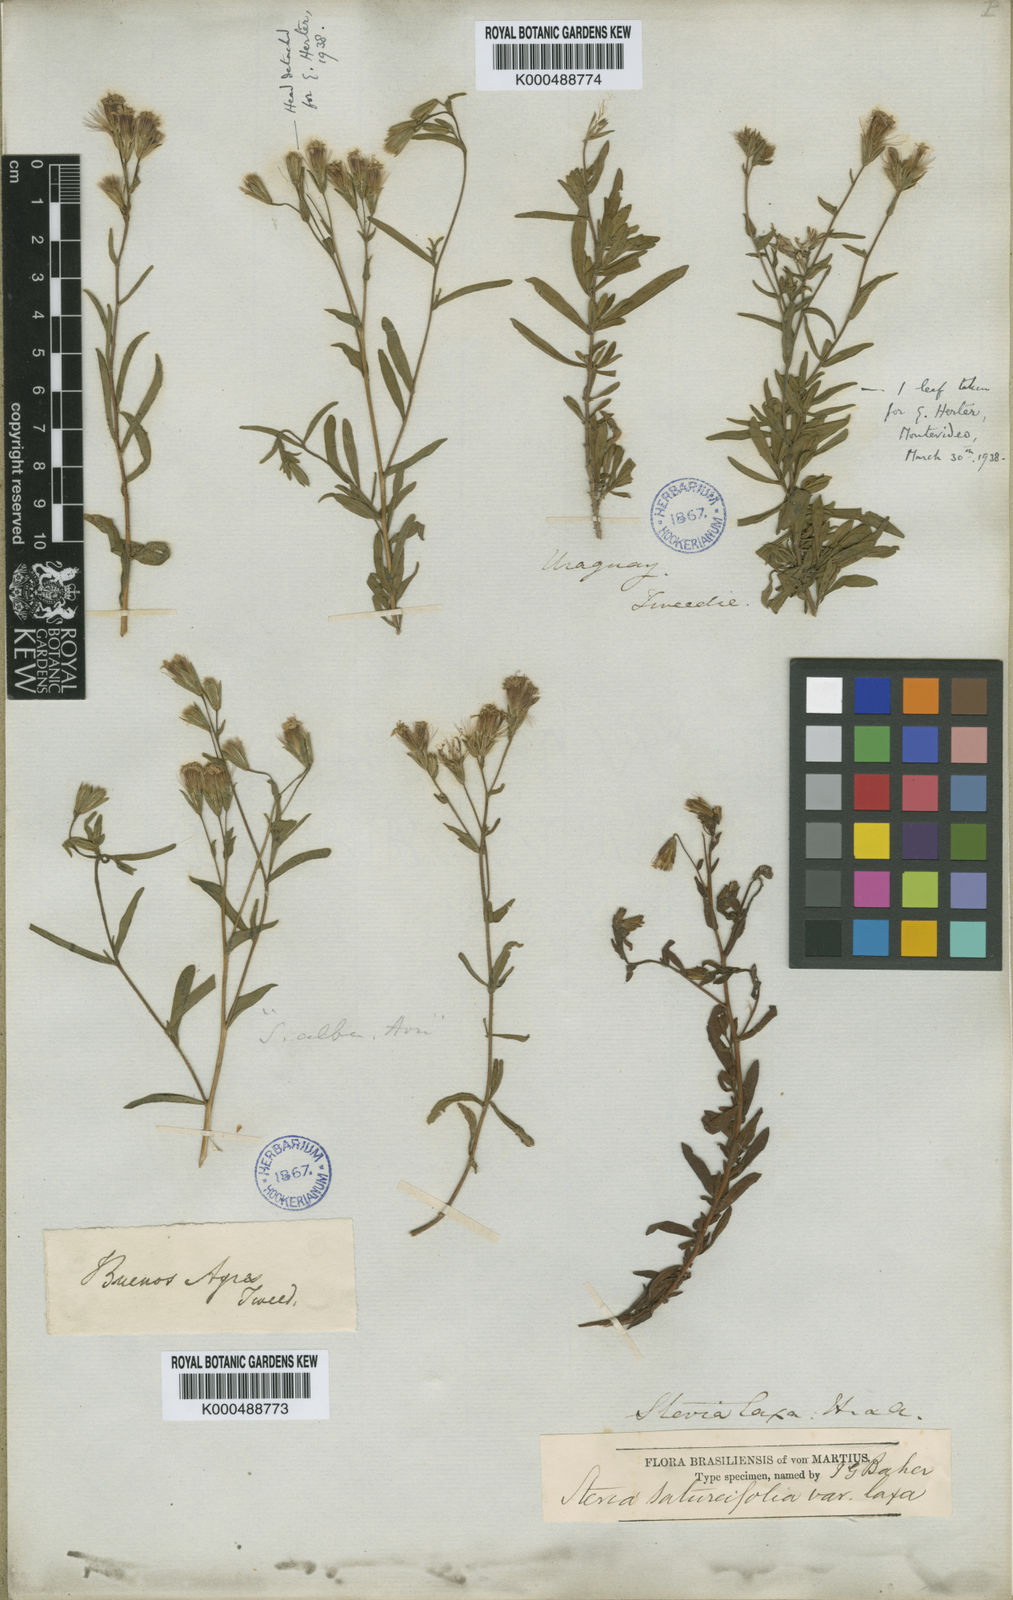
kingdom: Plantae
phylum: Tracheophyta
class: Magnoliopsida
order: Asterales
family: Asteraceae
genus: Stevia
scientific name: Stevia multiaristata
